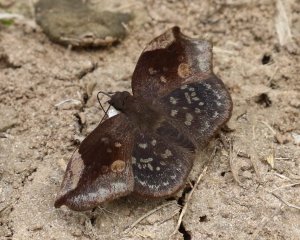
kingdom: Animalia
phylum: Arthropoda
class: Insecta
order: Lepidoptera
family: Hesperiidae
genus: Achlyodes
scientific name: Achlyodes thraso
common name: Sickle-winged Skipper
